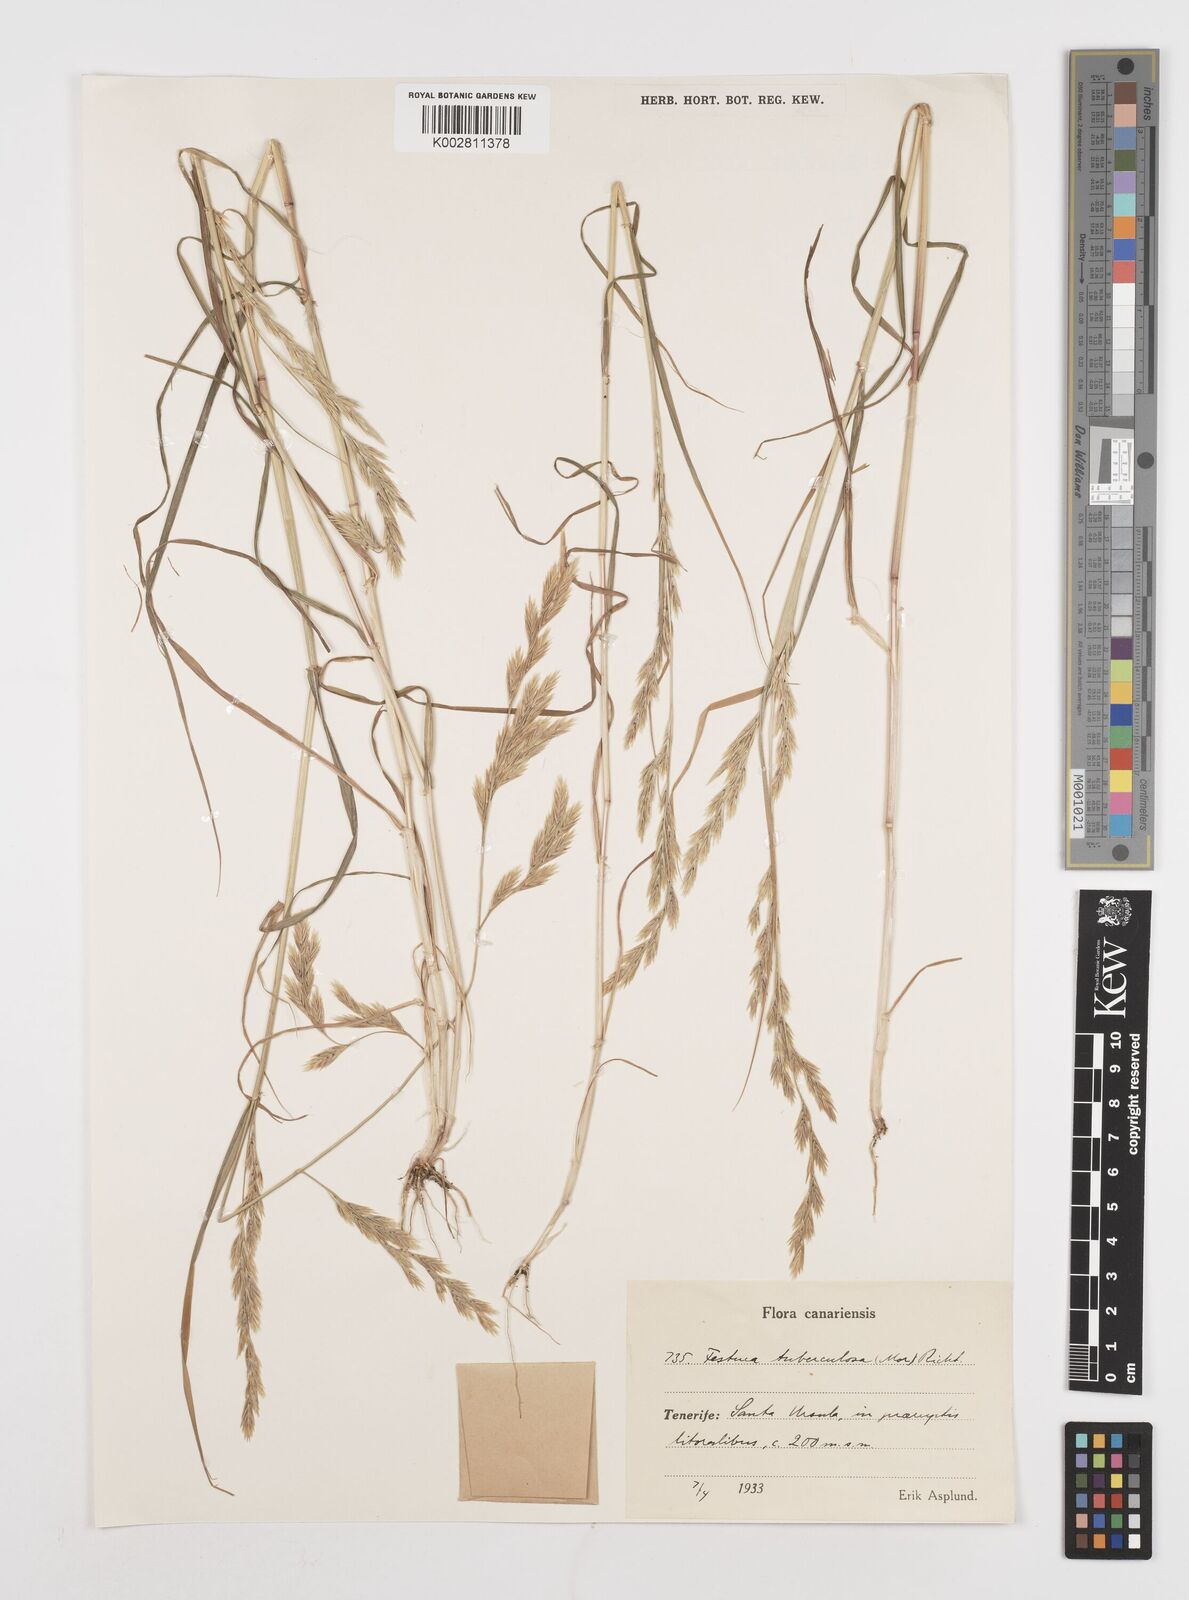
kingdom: Plantae
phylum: Tracheophyta
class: Liliopsida
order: Poales
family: Poaceae
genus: Castellia
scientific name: Castellia tuberculosa
